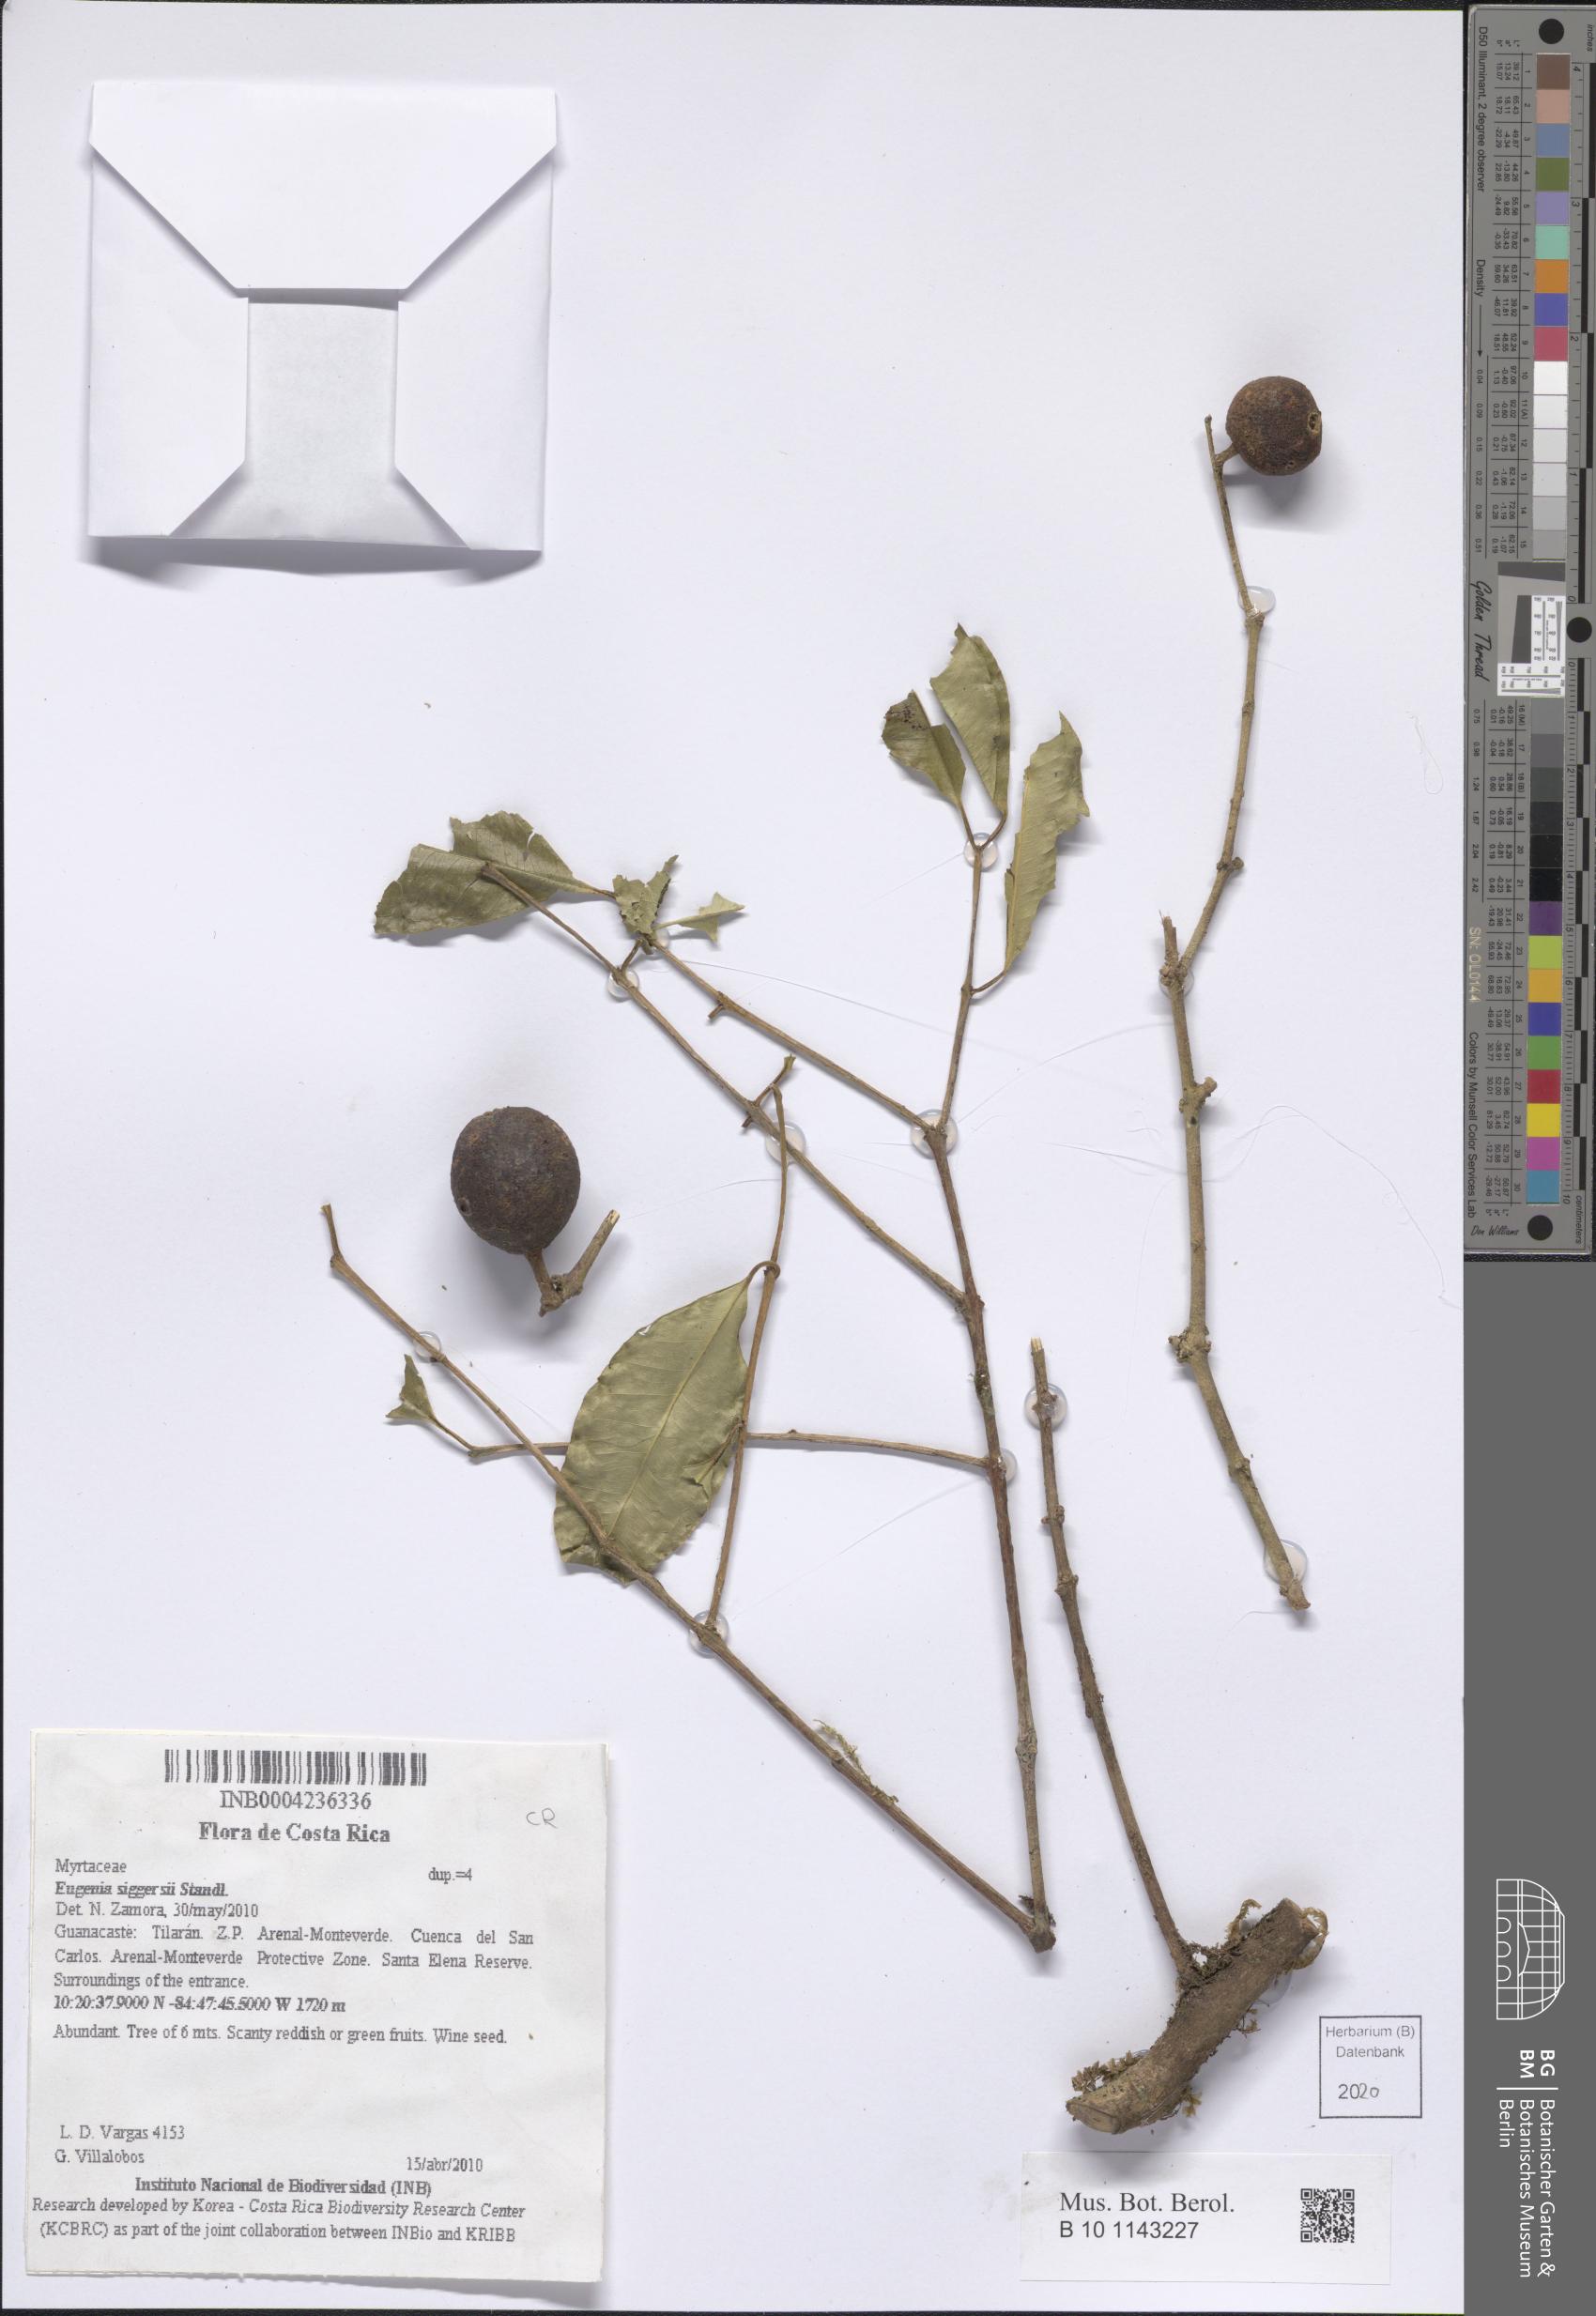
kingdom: Plantae
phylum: Tracheophyta
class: Magnoliopsida
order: Myrtales
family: Myrtaceae
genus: Eugenia
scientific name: Eugenia siggersii
